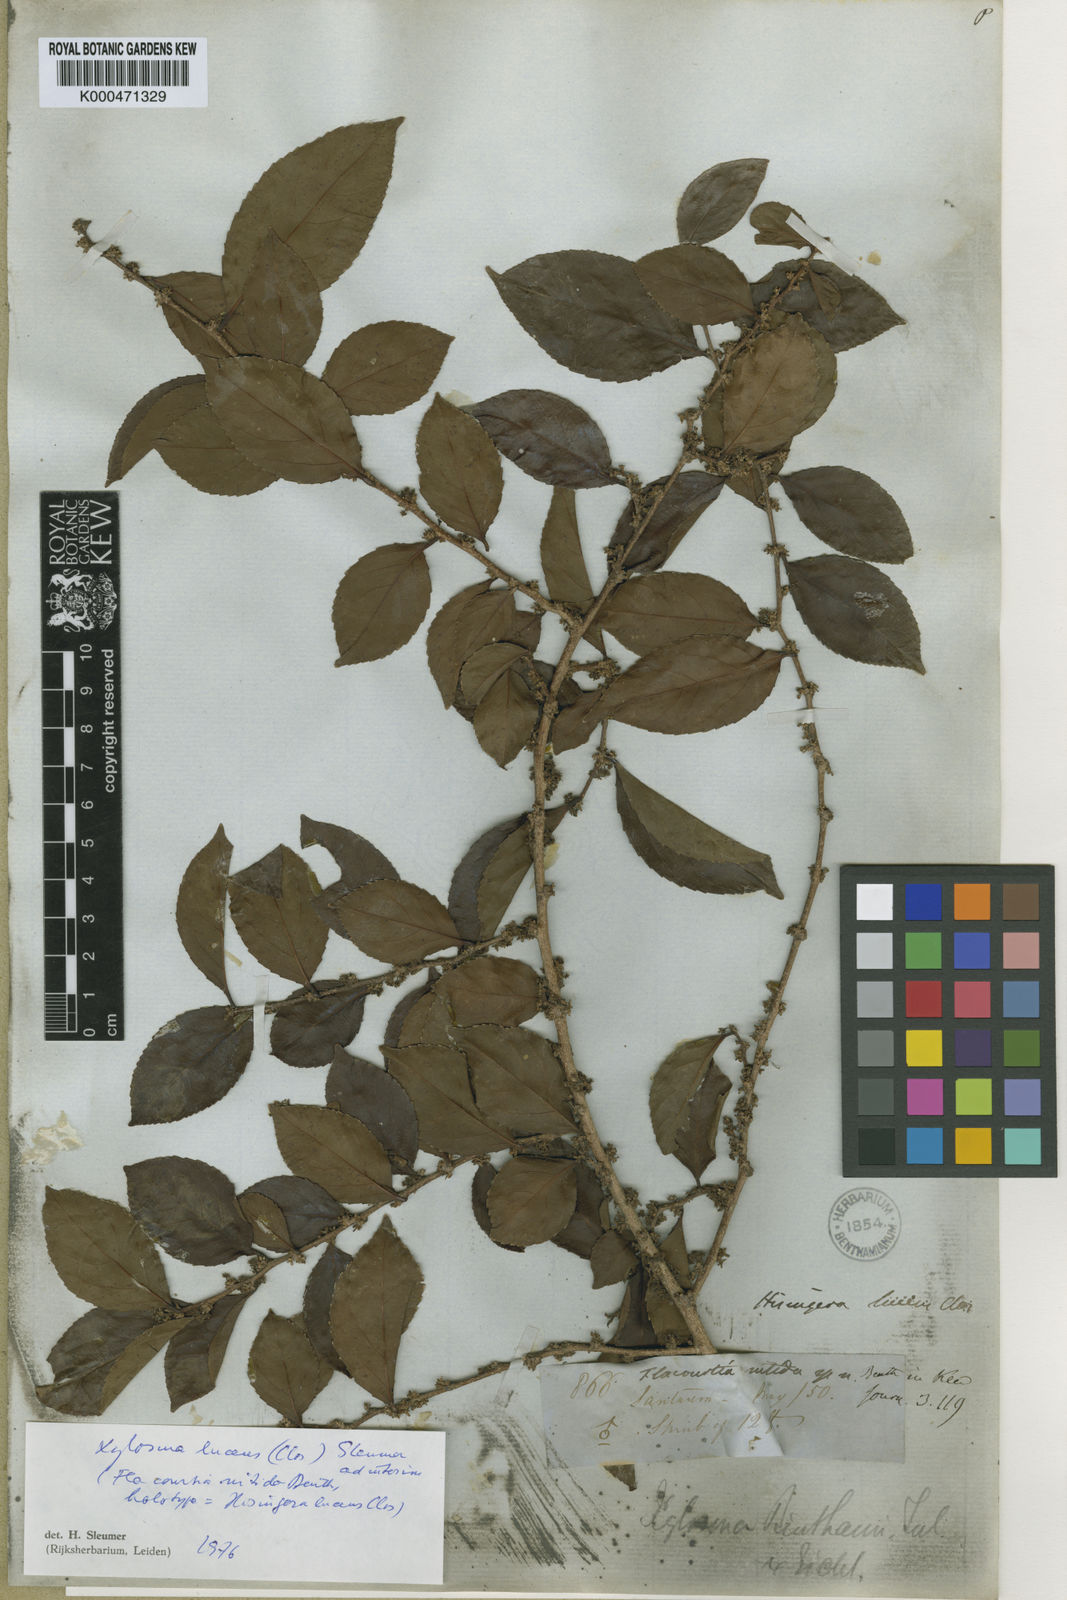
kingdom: Plantae
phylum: Tracheophyta
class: Magnoliopsida
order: Malpighiales
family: Salicaceae
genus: Xylosma
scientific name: Xylosma benthamii
